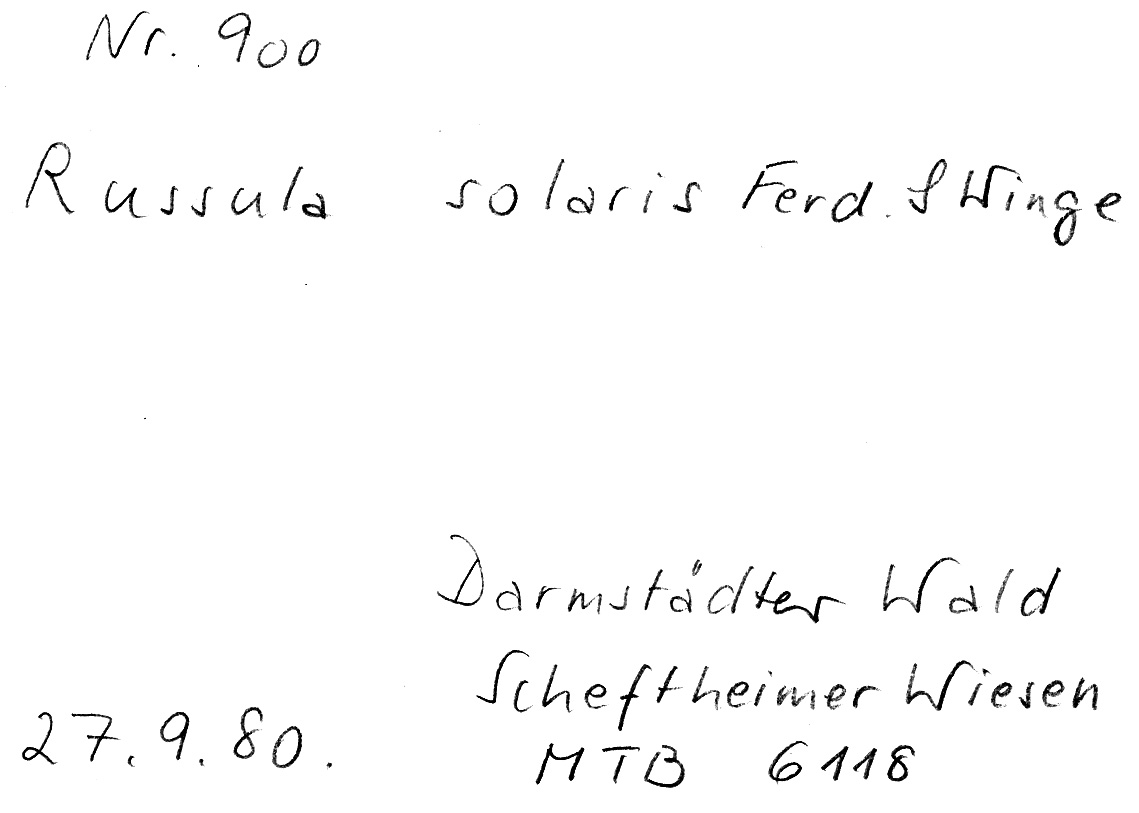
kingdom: Fungi
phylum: Basidiomycota
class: Agaricomycetes
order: Russulales
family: Russulaceae
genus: Russula
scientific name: Russula solaris
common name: Sunny brittlegill
